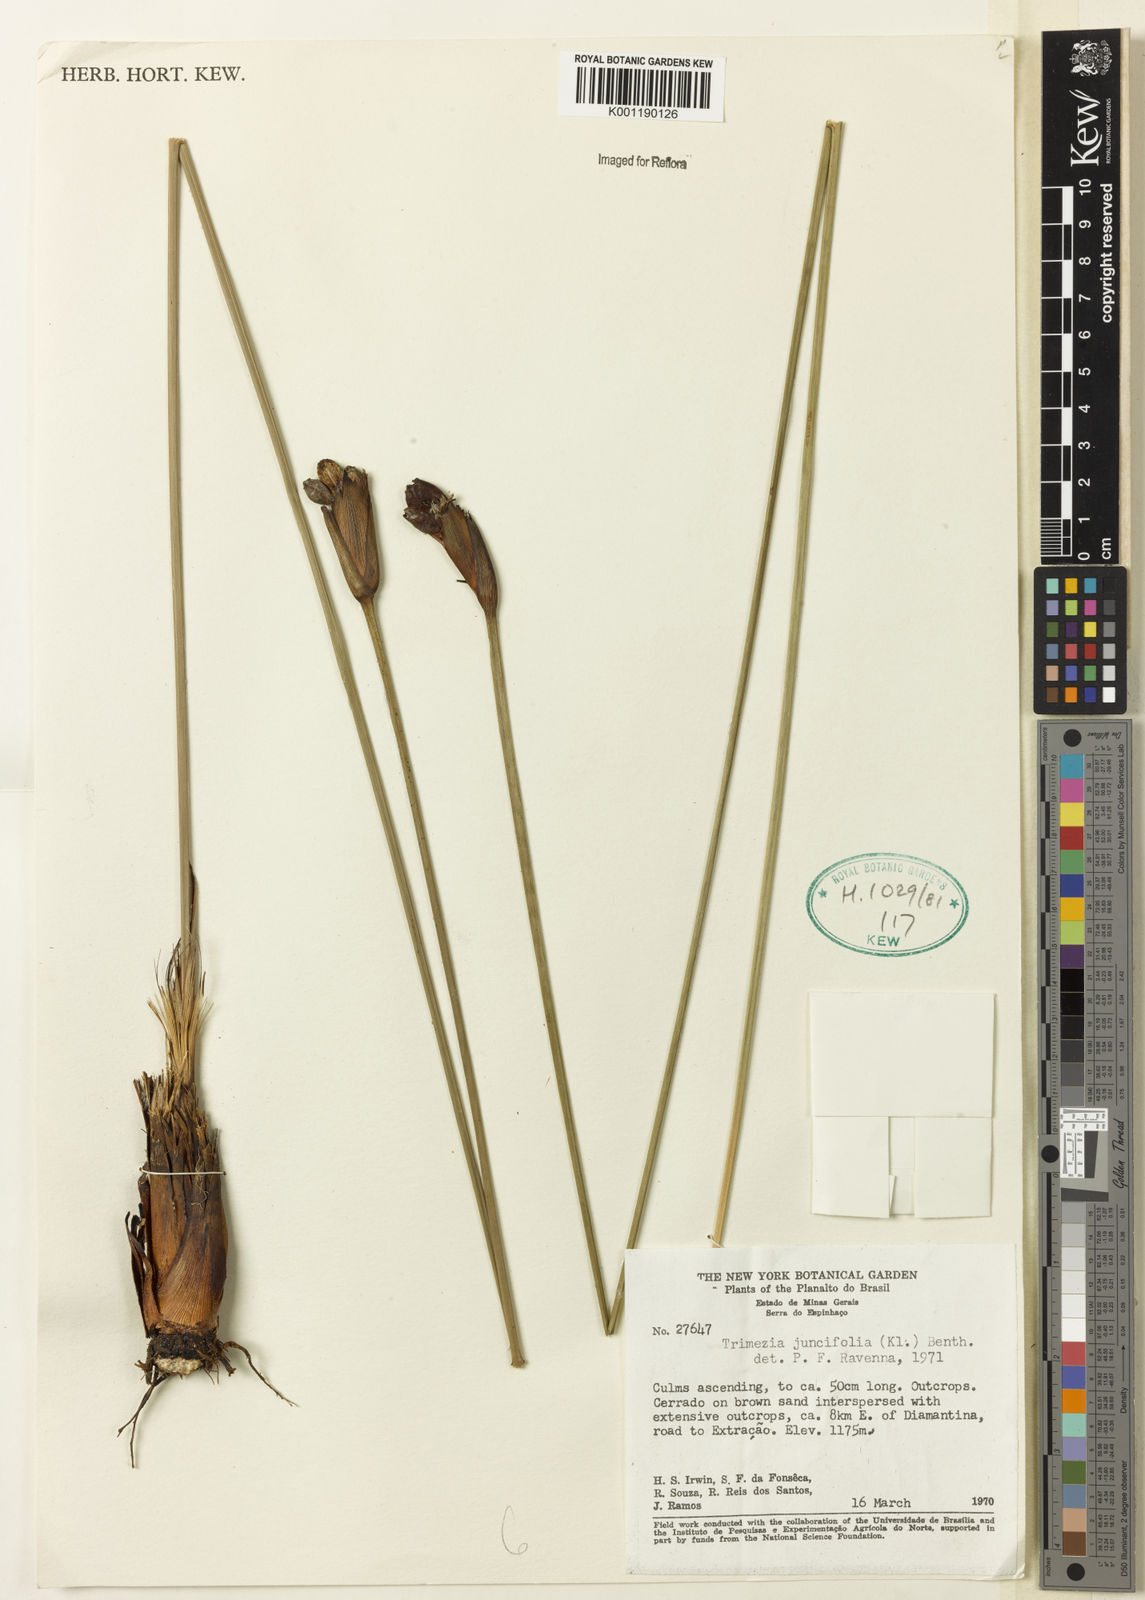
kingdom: Plantae
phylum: Tracheophyta
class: Liliopsida
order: Asparagales
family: Iridaceae
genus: Trimezia
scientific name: Trimezia juncifolia
